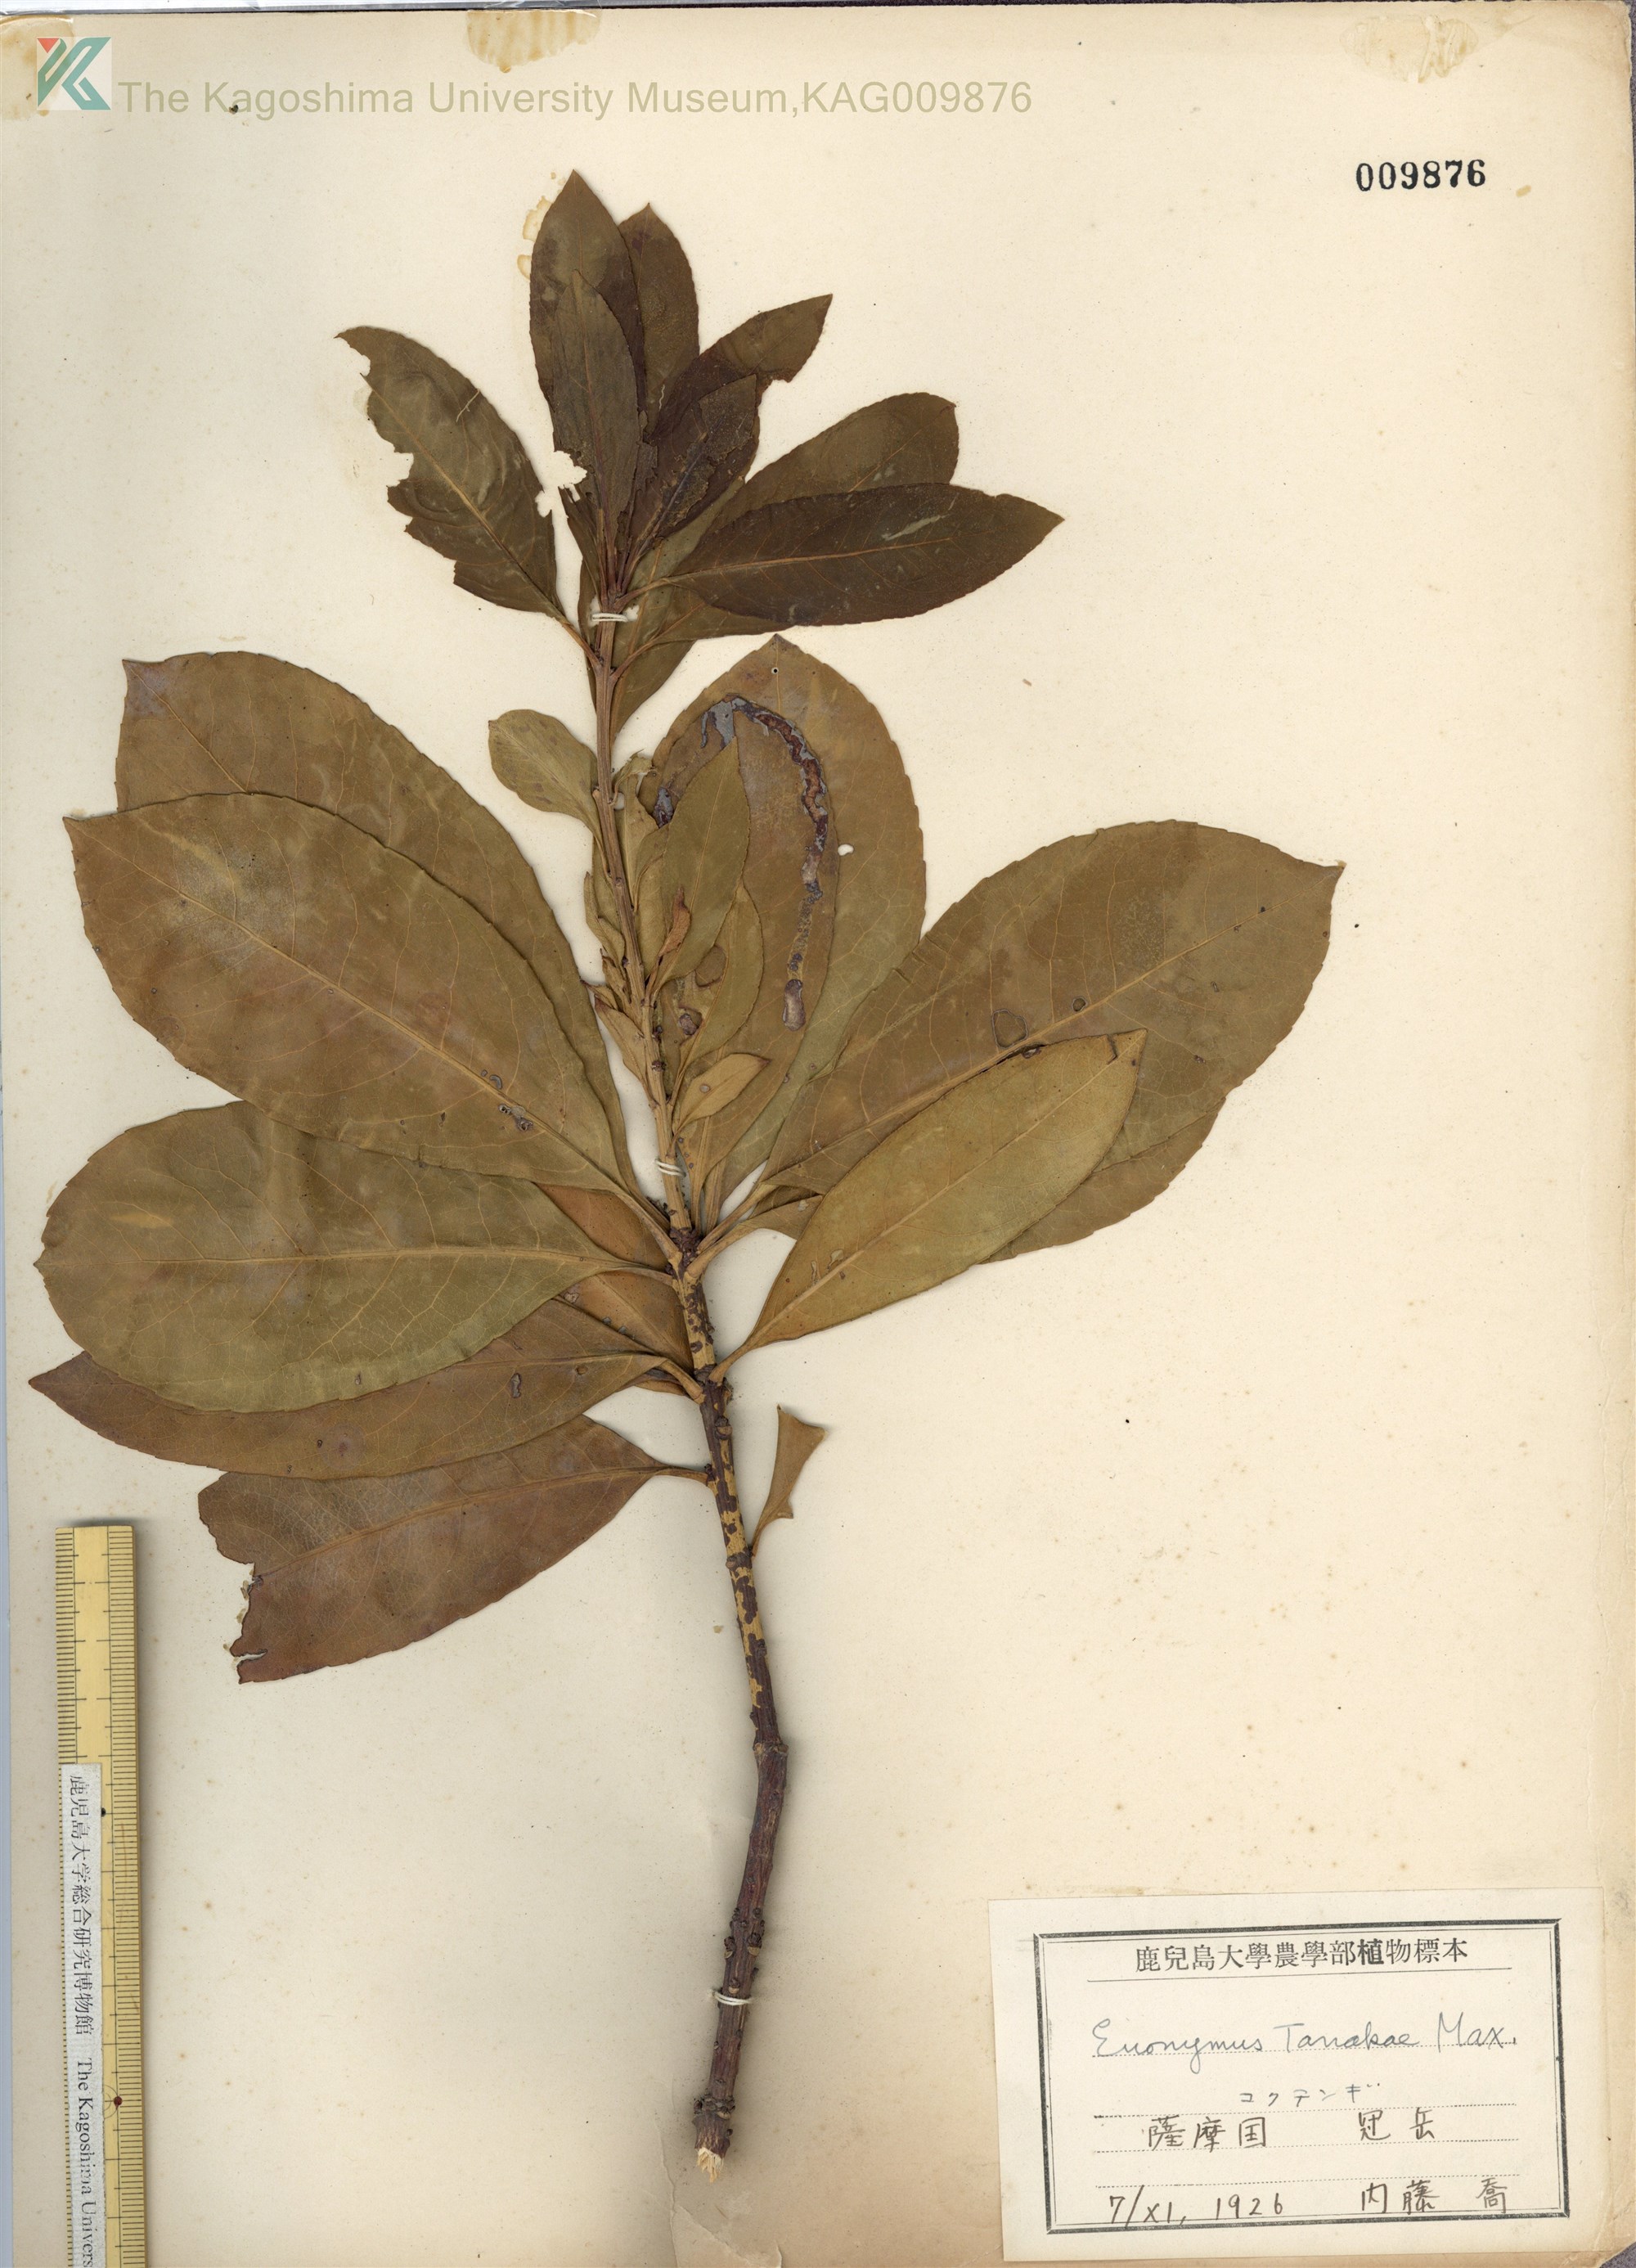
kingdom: Plantae
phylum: Tracheophyta
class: Magnoliopsida
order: Celastrales
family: Celastraceae
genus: Euonymus
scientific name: Euonymus carnosus
